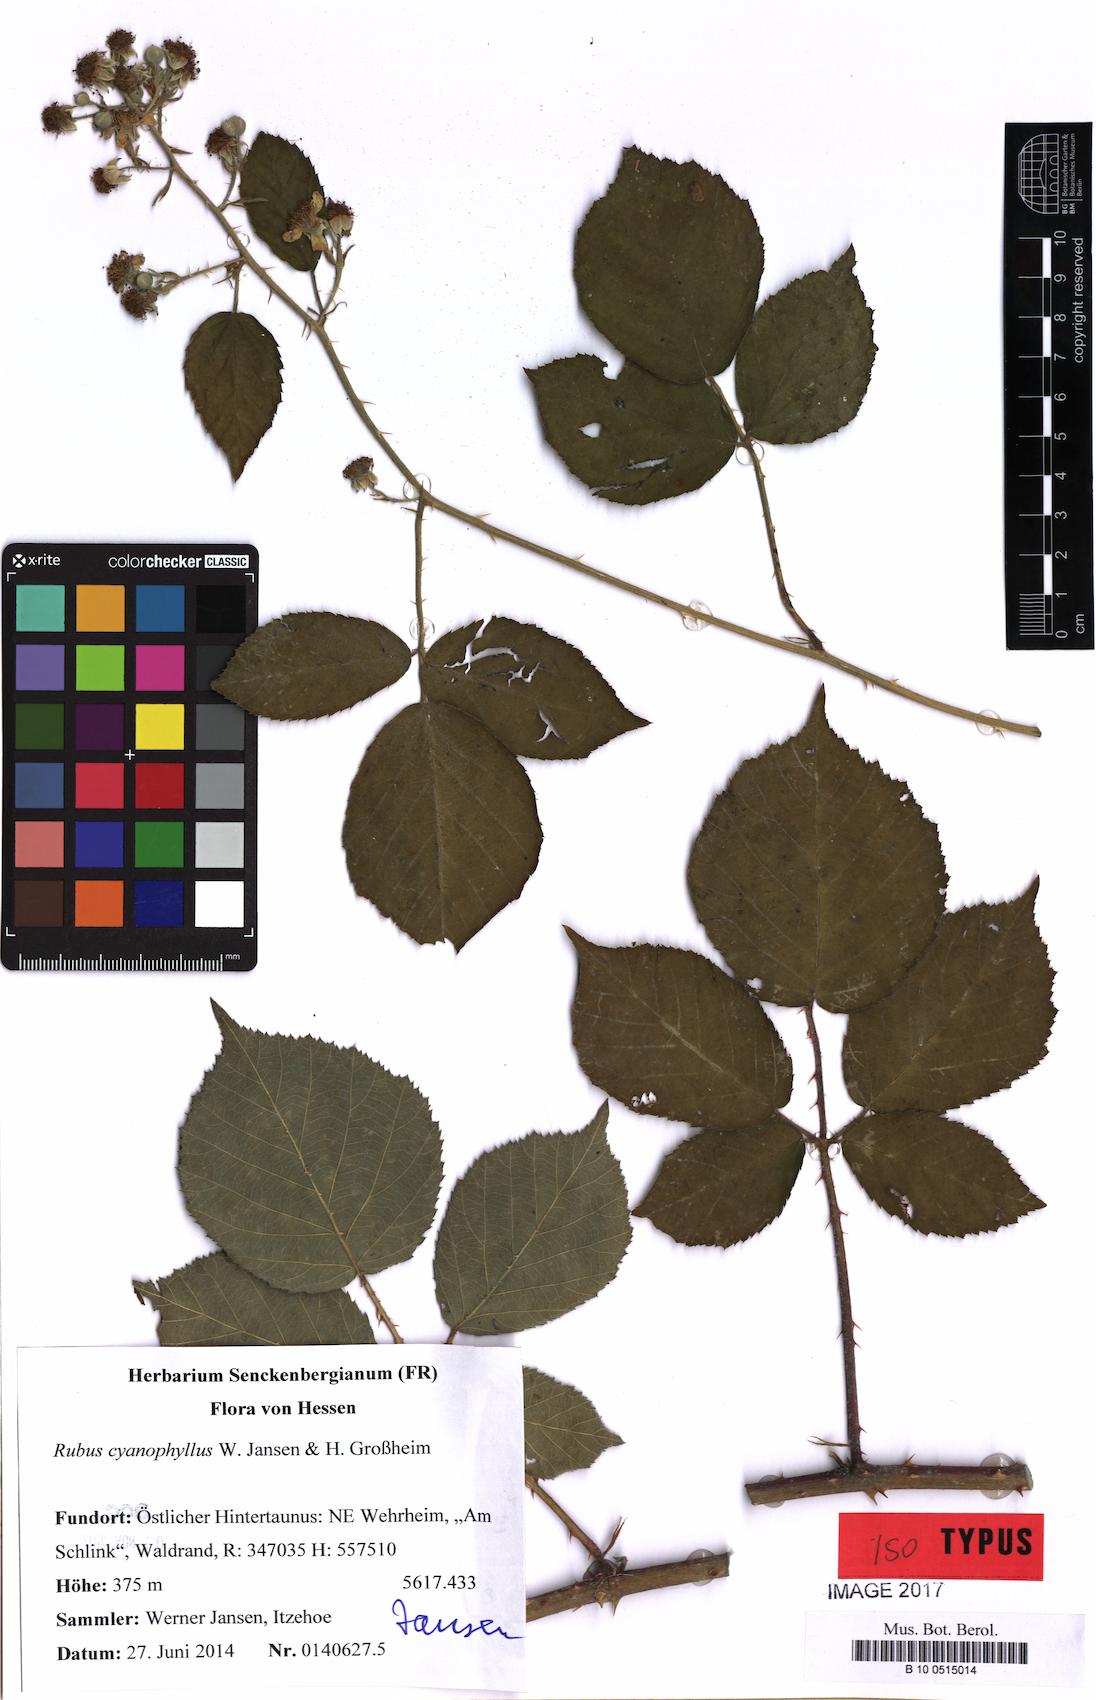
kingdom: Plantae
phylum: Tracheophyta
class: Magnoliopsida
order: Rosales
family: Rosaceae
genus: Rubus
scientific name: Rubus cyanophyllus
